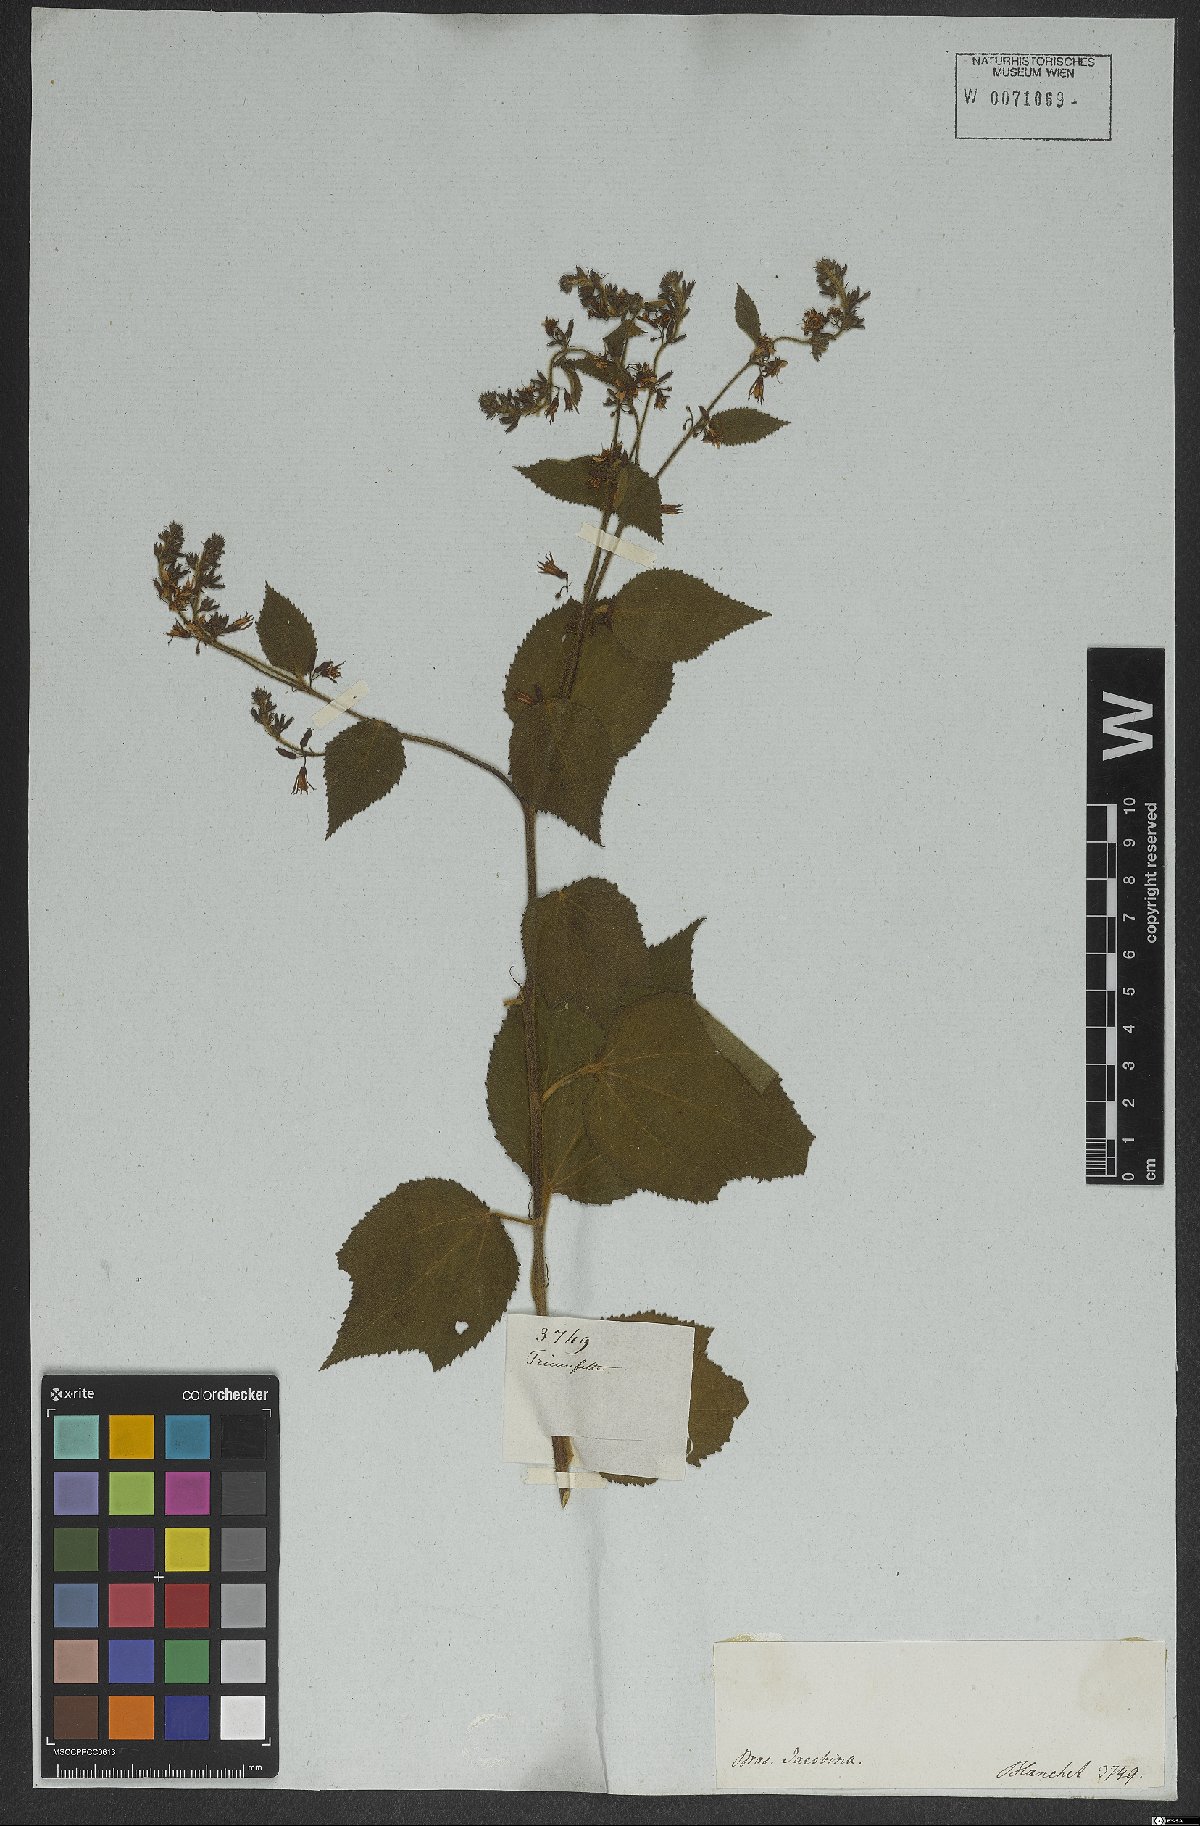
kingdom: Plantae
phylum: Tracheophyta
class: Magnoliopsida
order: Malvales
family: Malvaceae
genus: Triumfetta
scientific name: Triumfetta mollissima
